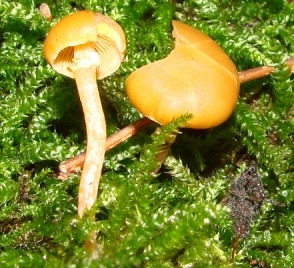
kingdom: Fungi
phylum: Basidiomycota
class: Agaricomycetes
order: Agaricales
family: Hymenogastraceae
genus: Galerina
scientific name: Galerina esteve-raventosii
